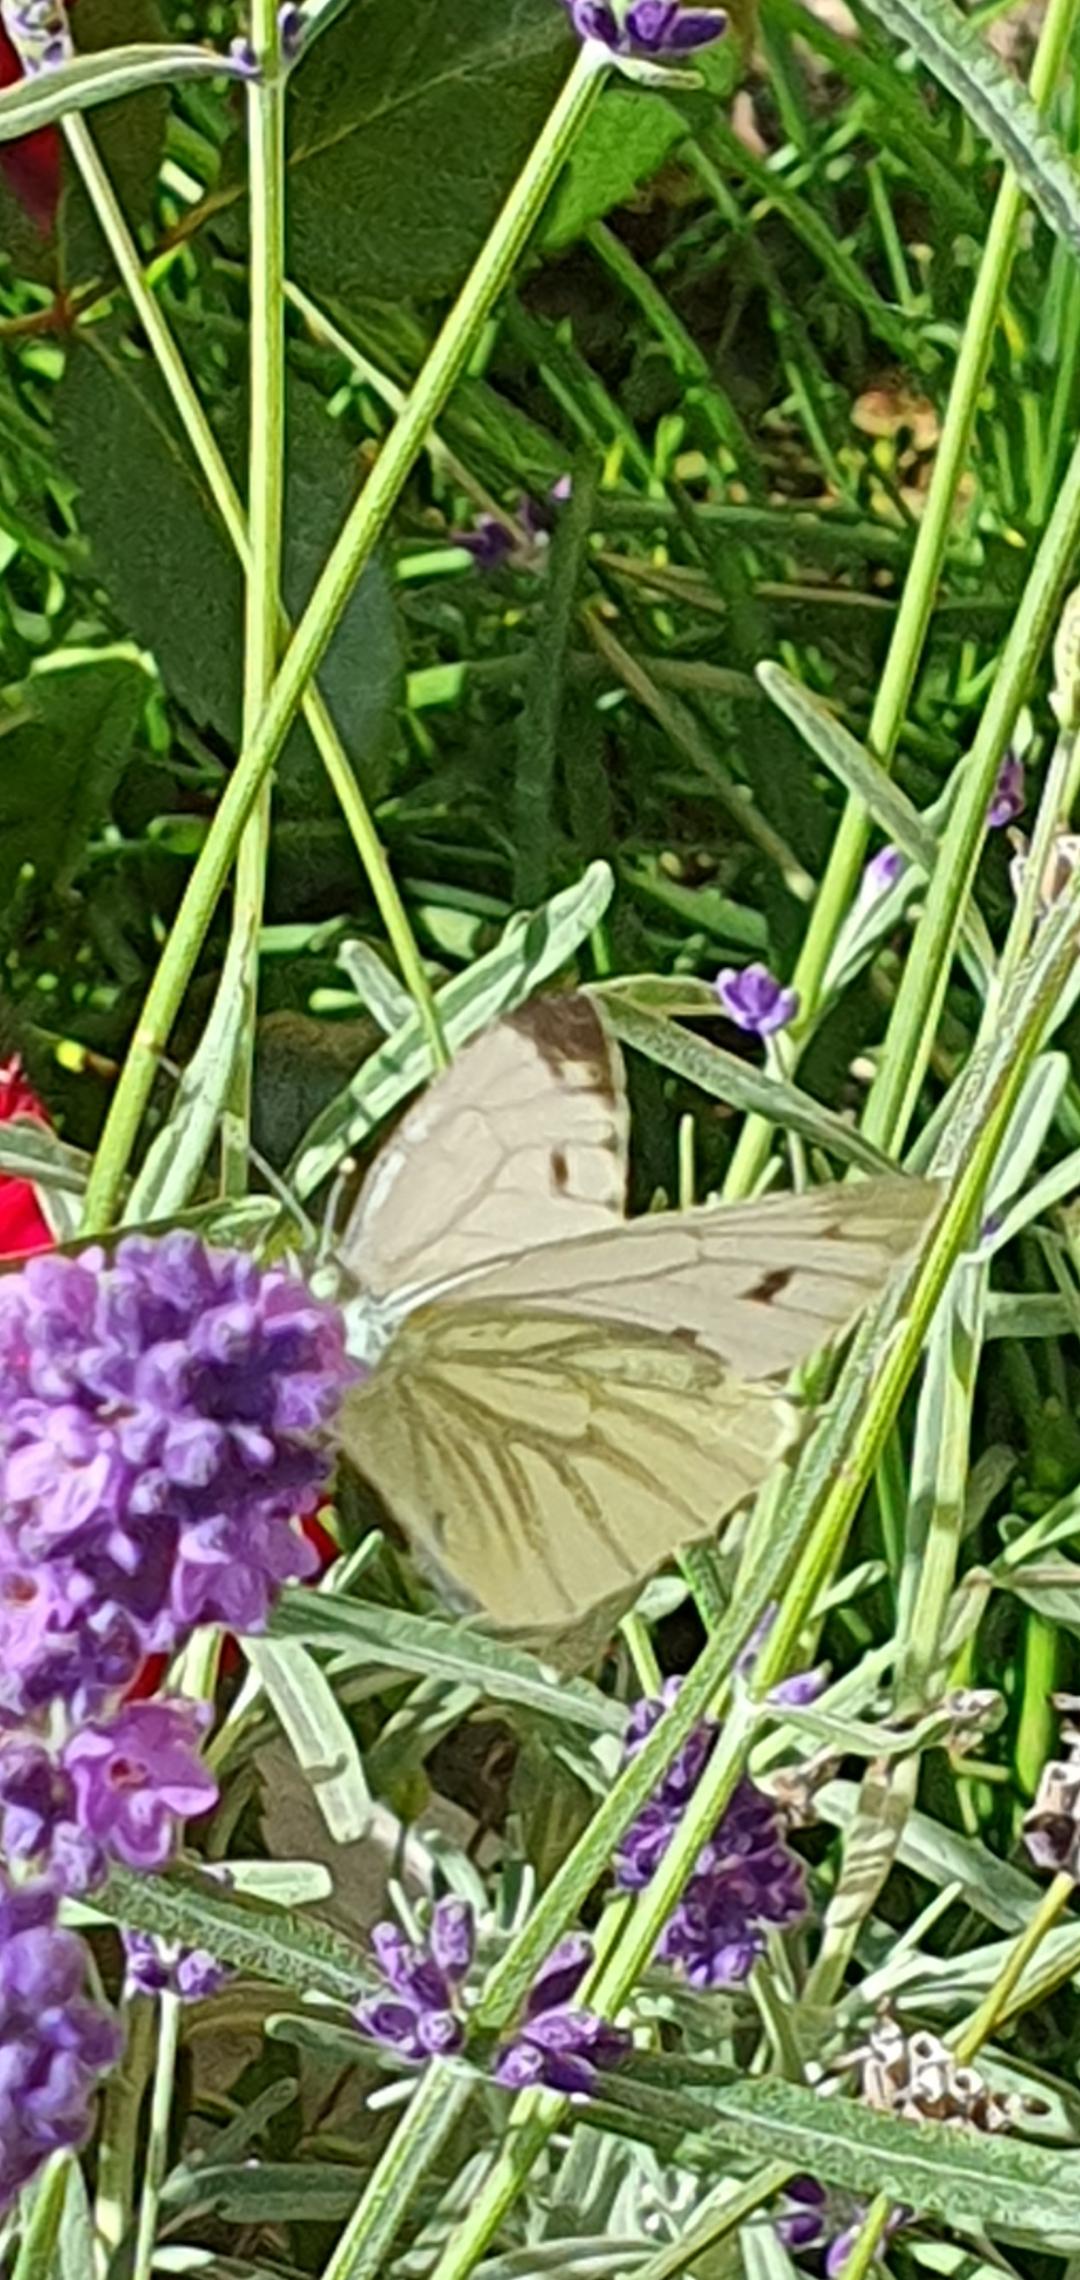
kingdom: Animalia
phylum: Arthropoda
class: Insecta
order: Lepidoptera
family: Pieridae
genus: Pieris
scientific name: Pieris napi
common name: Grønåret kålsommerfugl
